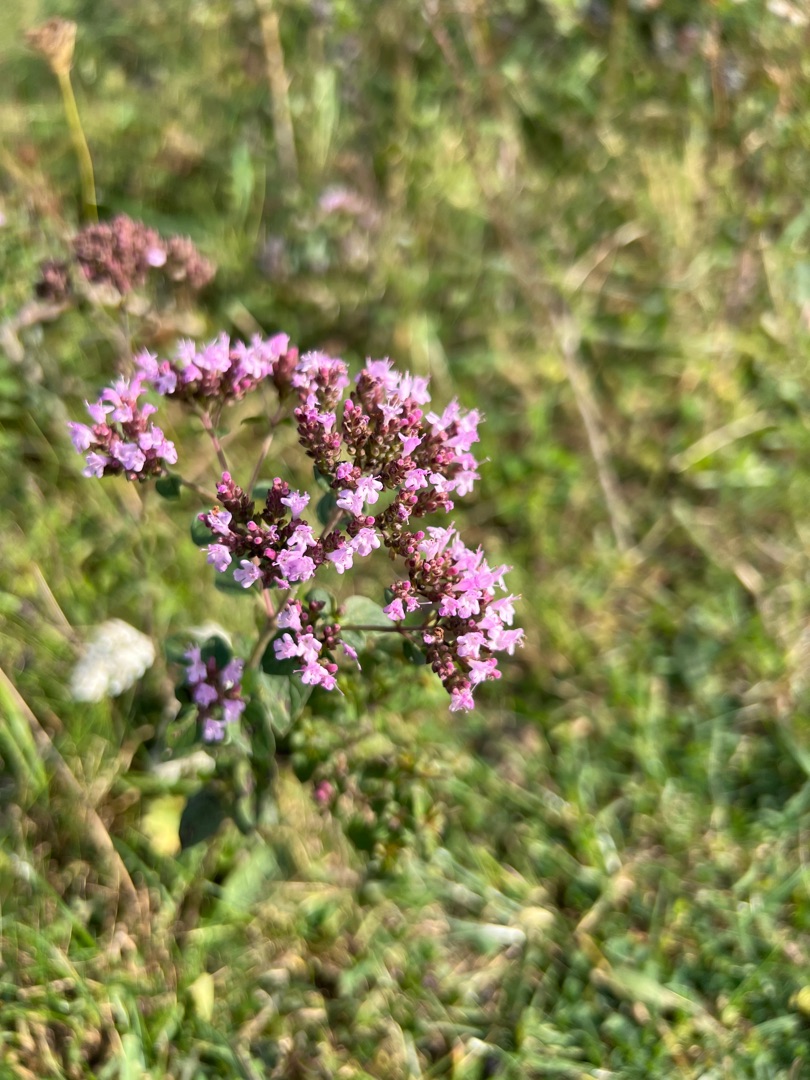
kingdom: Plantae
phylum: Tracheophyta
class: Magnoliopsida
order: Lamiales
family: Lamiaceae
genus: Origanum
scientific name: Origanum vulgare
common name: Merian
